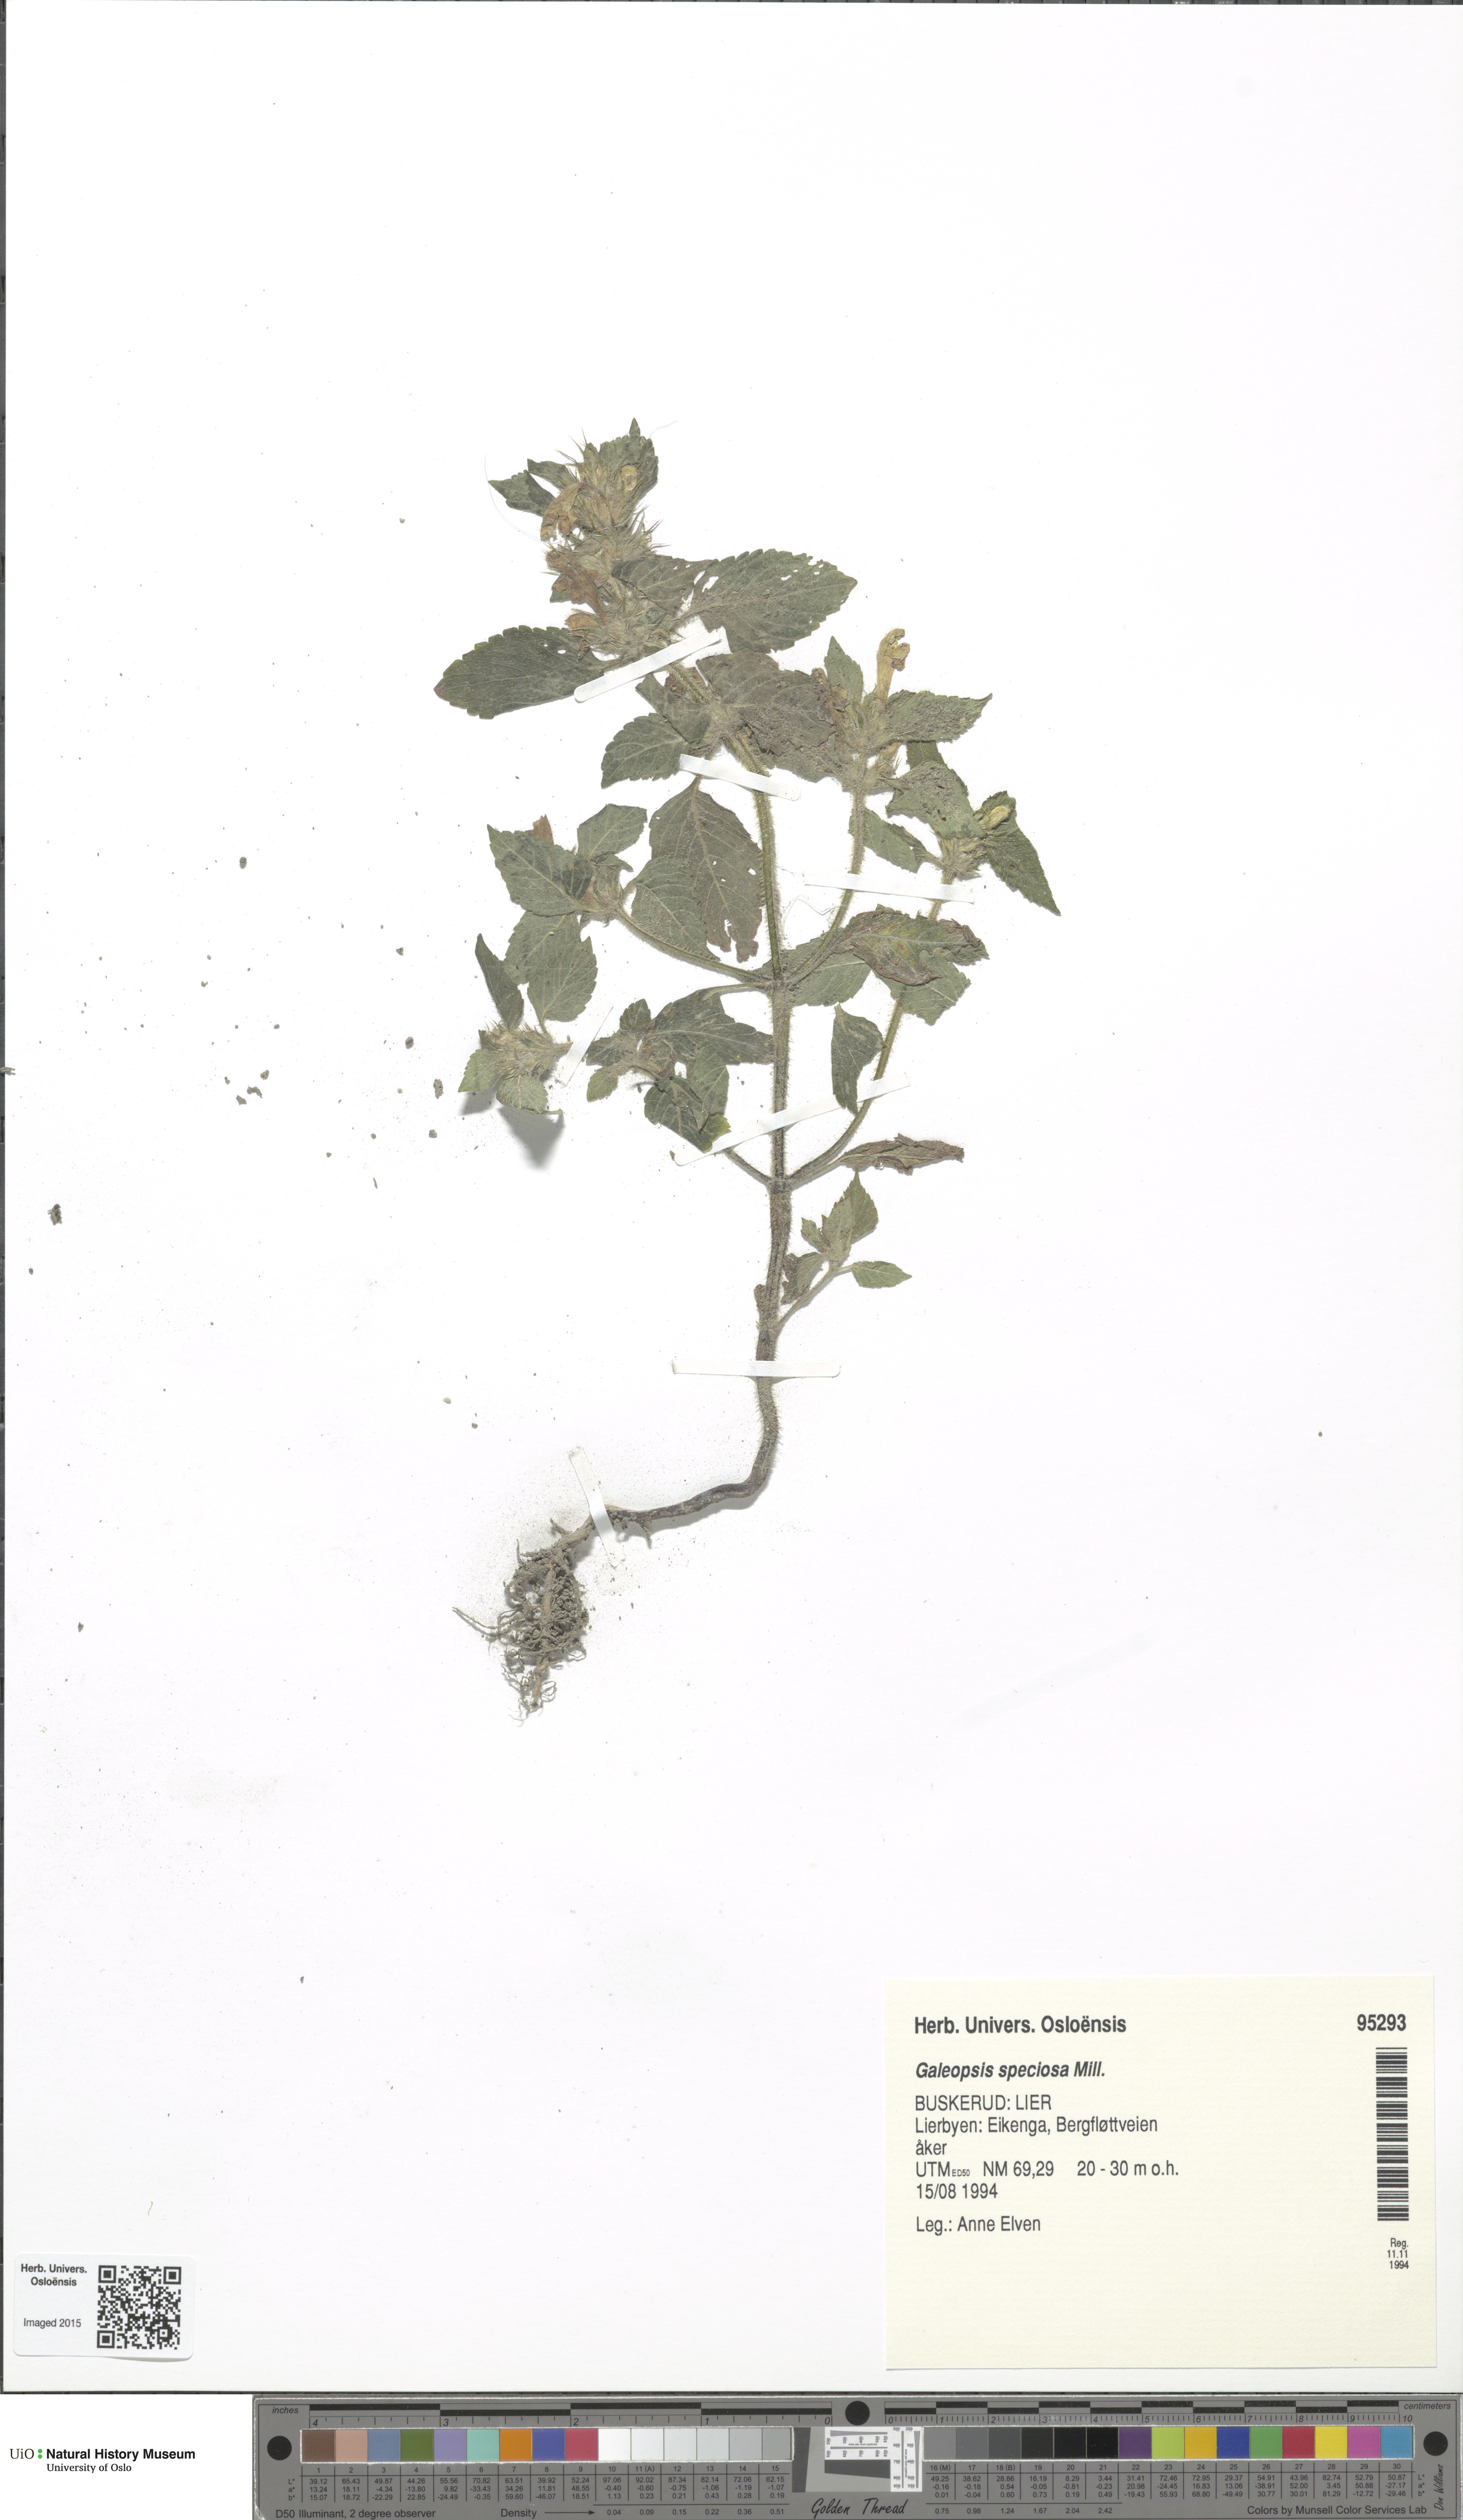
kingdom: Plantae
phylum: Tracheophyta
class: Magnoliopsida
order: Lamiales
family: Lamiaceae
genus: Galeopsis
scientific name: Galeopsis speciosa
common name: Large-flowered hemp-nettle
